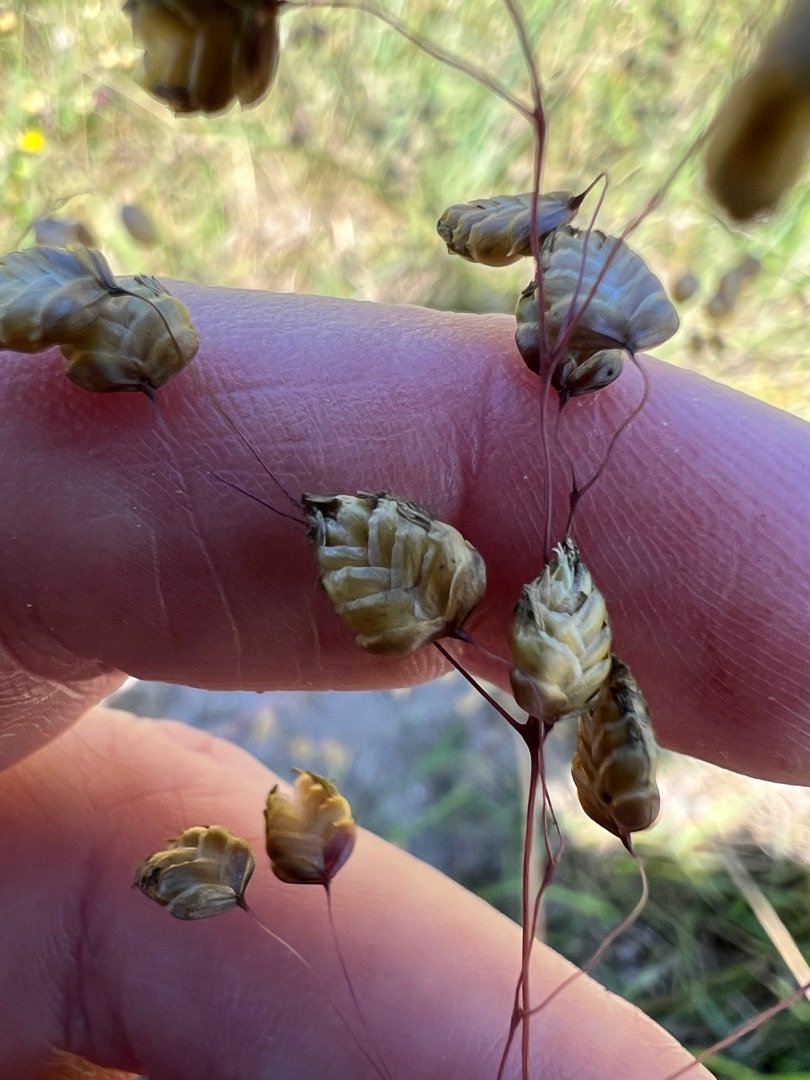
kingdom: Plantae
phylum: Tracheophyta
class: Liliopsida
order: Poales
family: Poaceae
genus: Briza
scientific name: Briza media
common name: Hjertegræs
